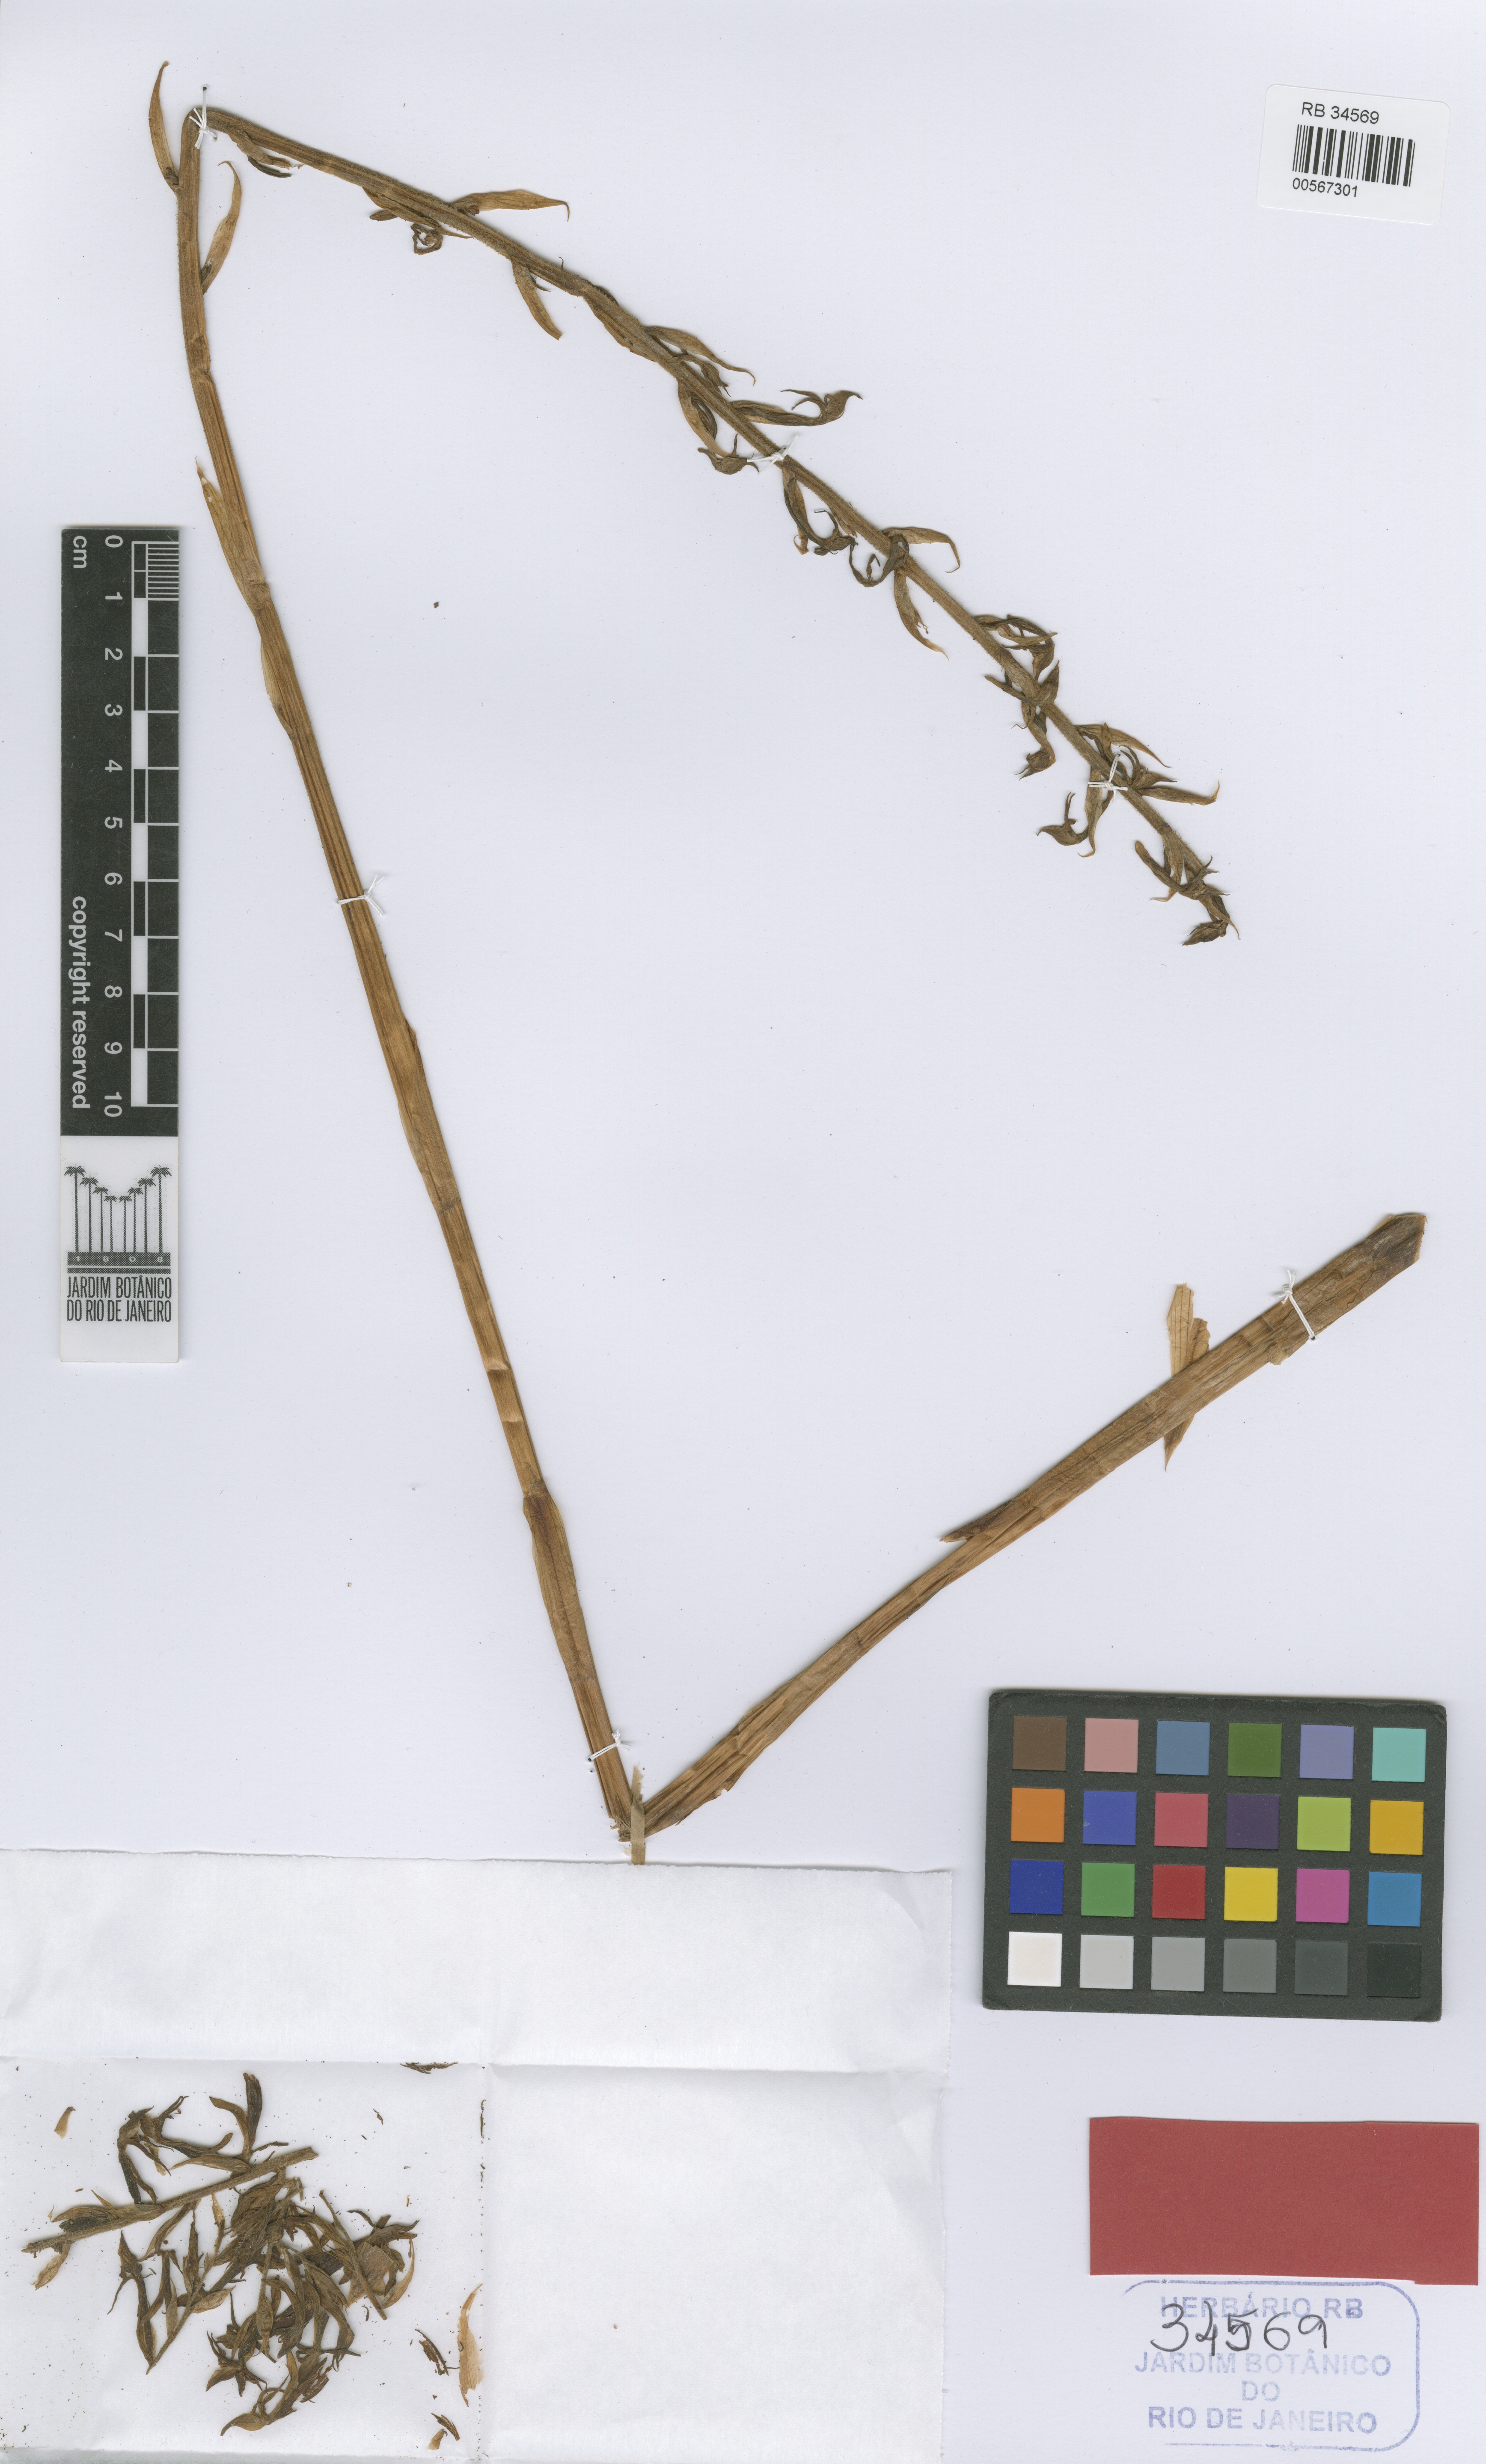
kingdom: Plantae
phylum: Tracheophyta
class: Liliopsida
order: Asparagales
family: Orchidaceae
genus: Eltroplectris
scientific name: Eltroplectris janeirensis
